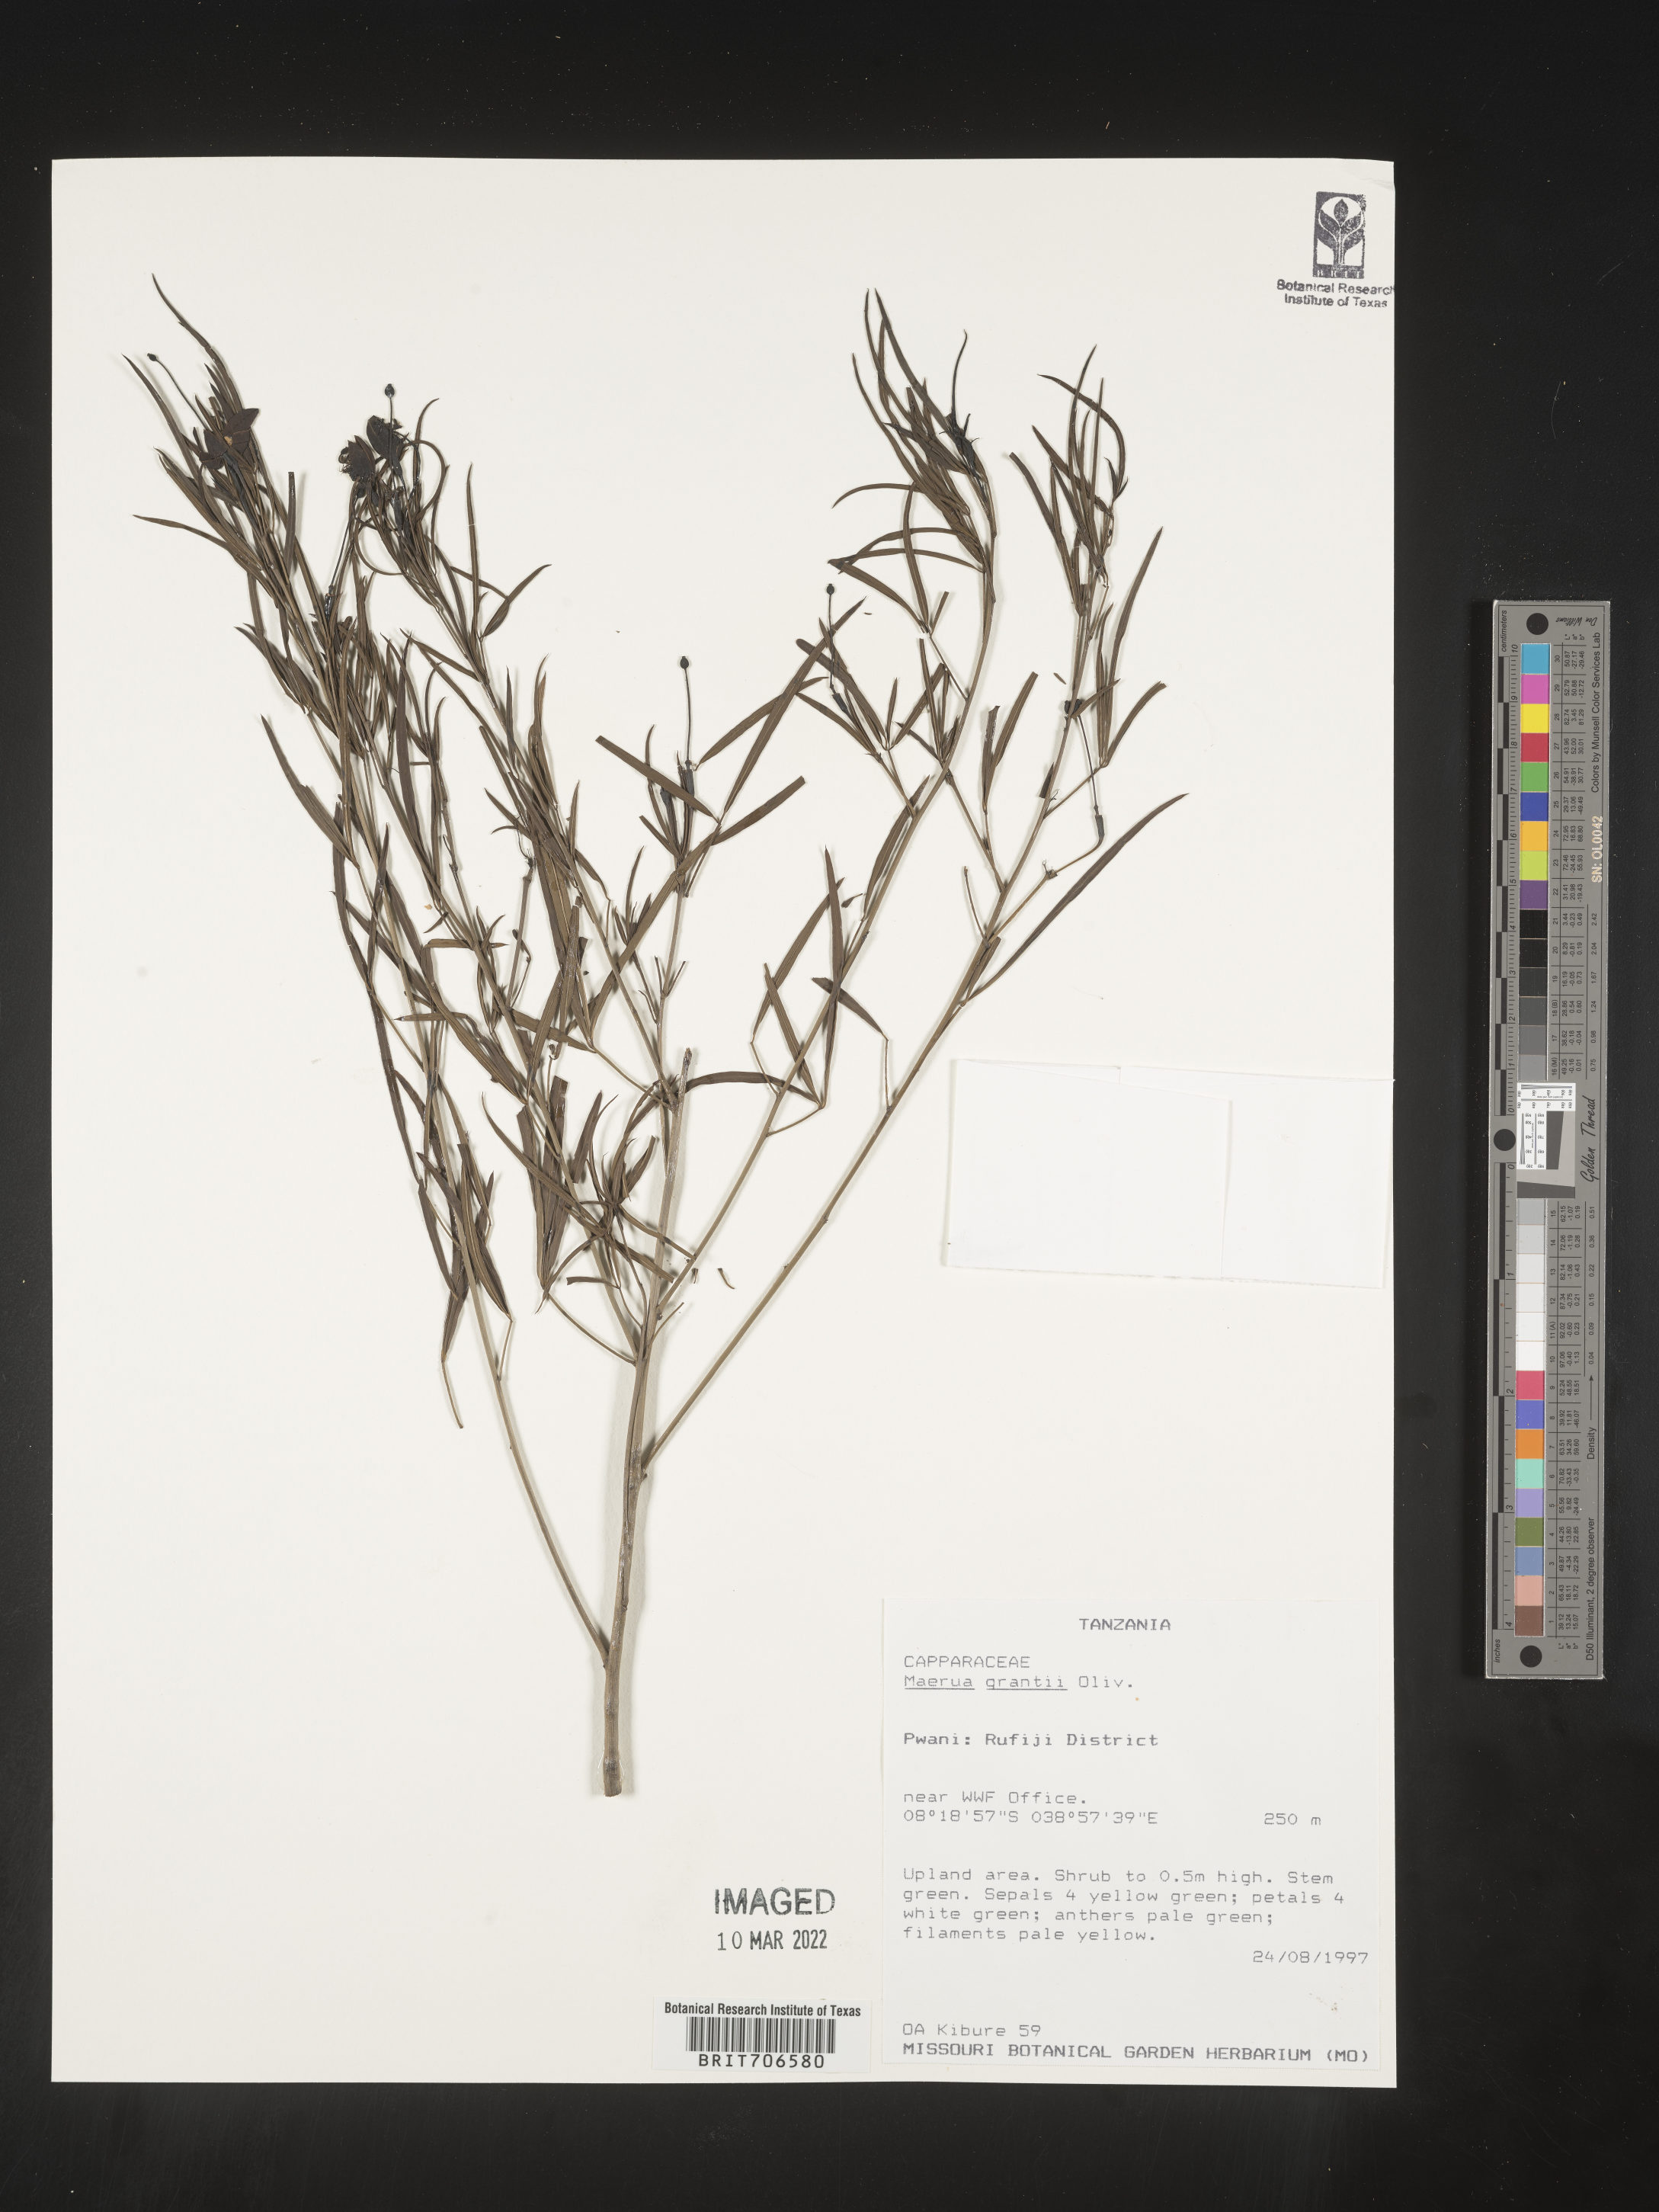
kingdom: Plantae
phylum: Tracheophyta
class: Magnoliopsida
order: Brassicales
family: Capparaceae
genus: Maerua
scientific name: Maerua
